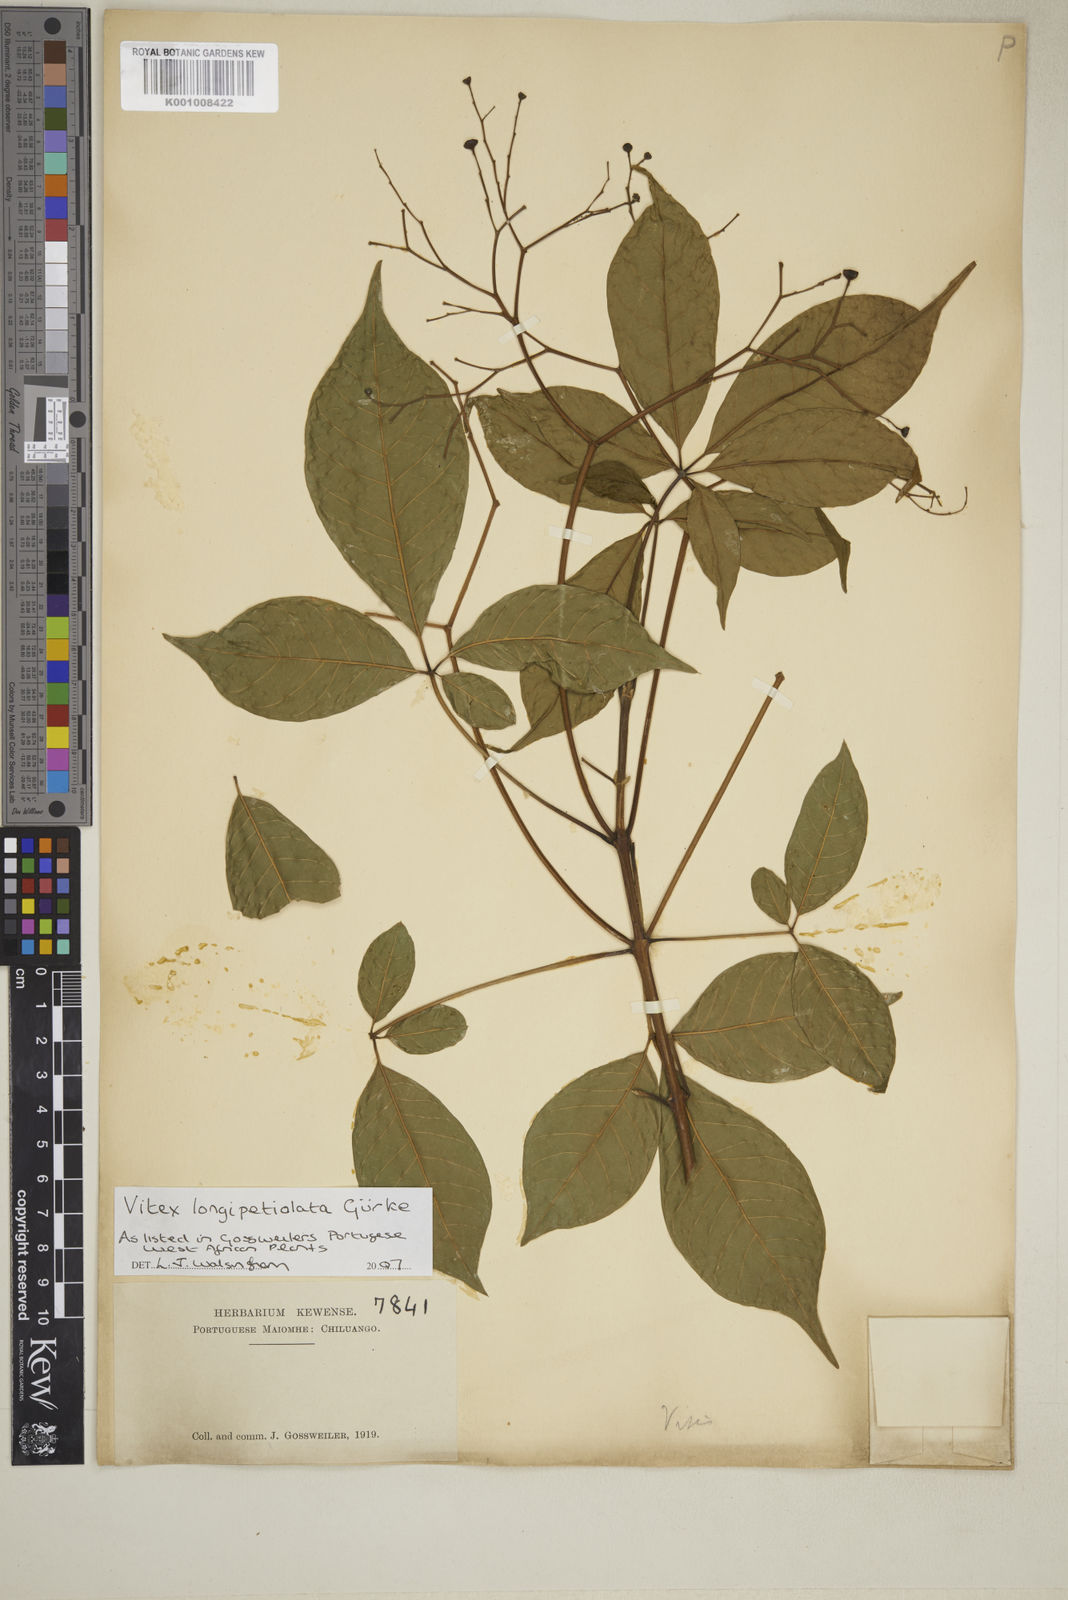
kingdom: Plantae
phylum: Tracheophyta
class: Magnoliopsida
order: Lamiales
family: Lamiaceae
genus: Vitex
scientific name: Vitex
